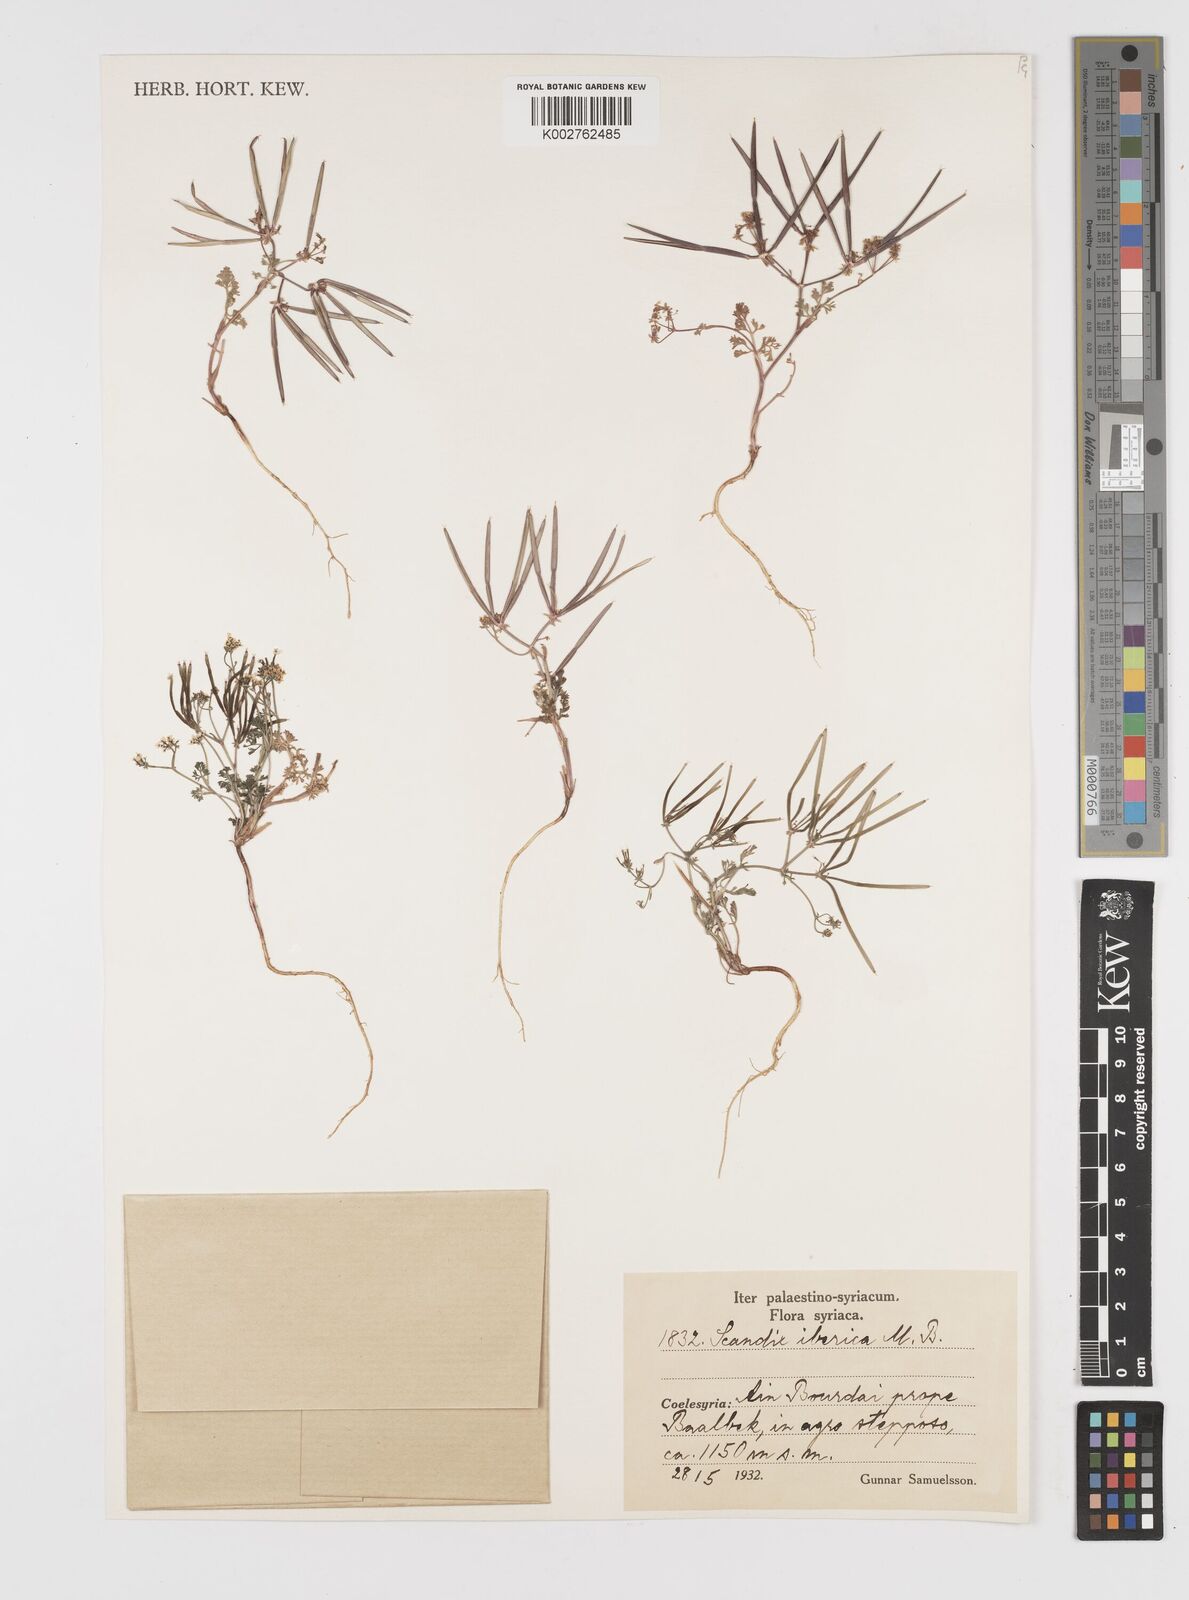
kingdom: Plantae
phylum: Tracheophyta
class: Magnoliopsida
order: Apiales
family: Apiaceae
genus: Scandix
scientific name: Scandix iberica
